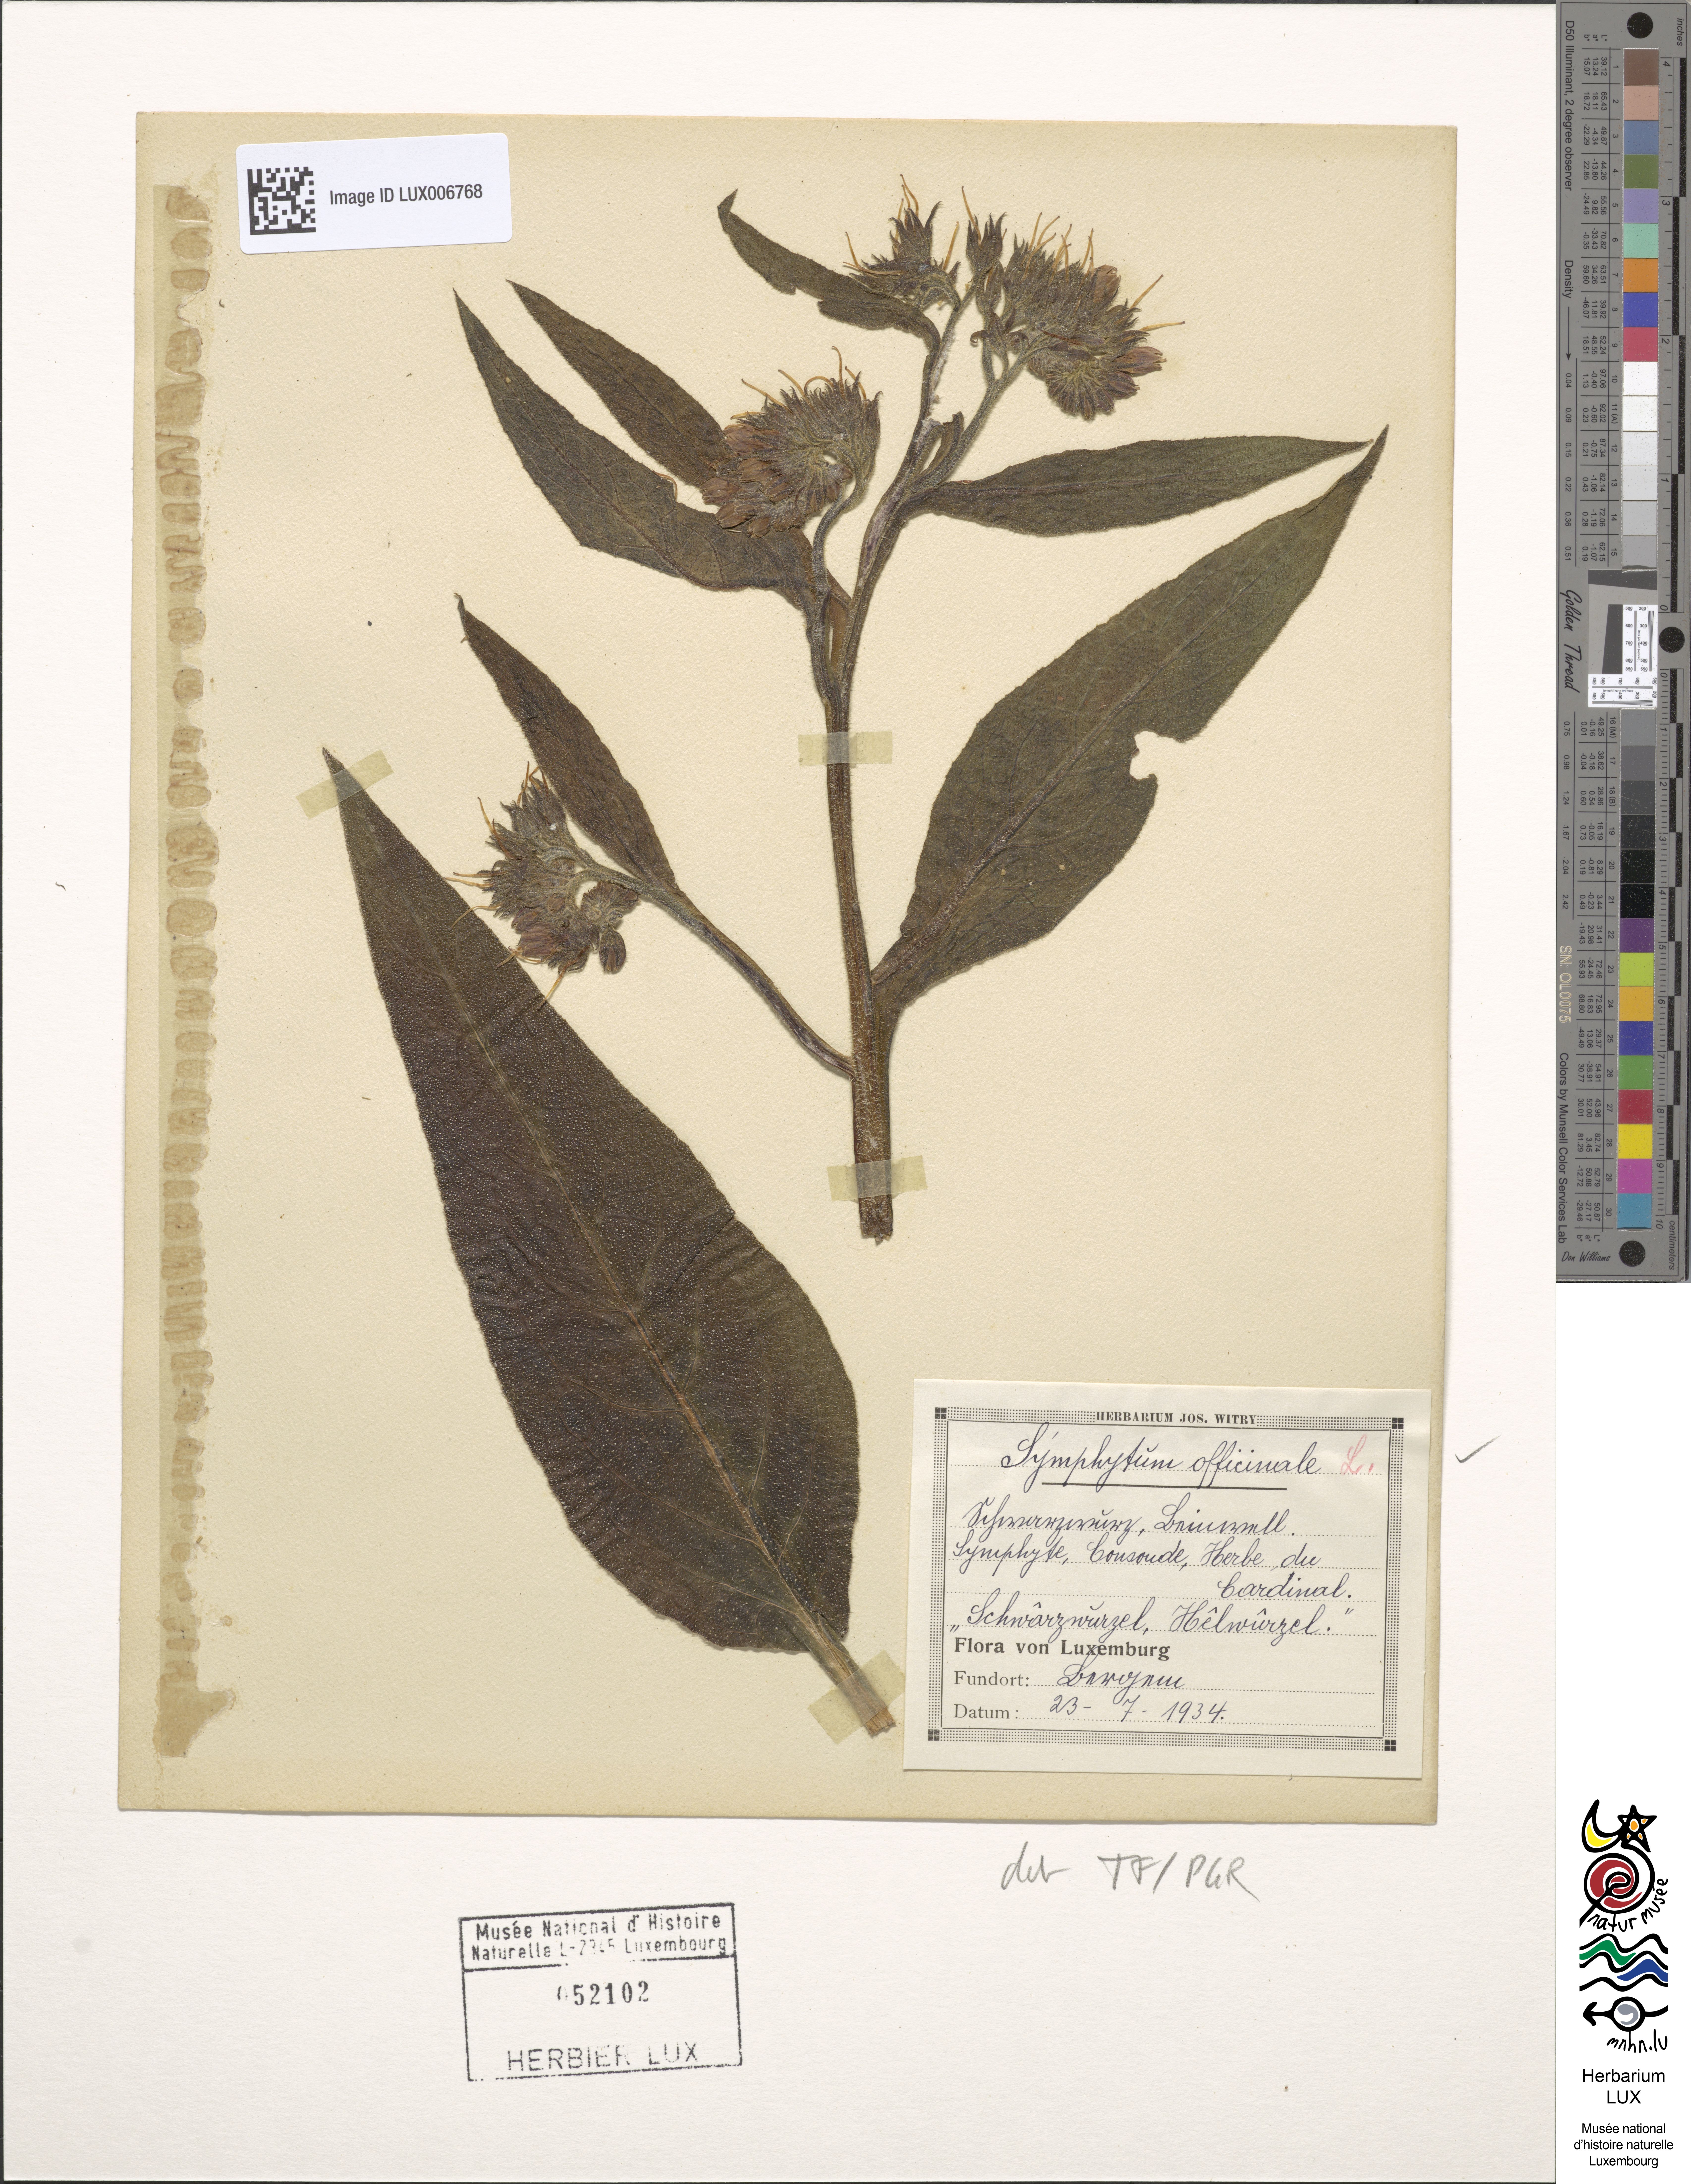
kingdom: Plantae
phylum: Tracheophyta
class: Magnoliopsida
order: Boraginales
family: Boraginaceae
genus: Symphytum
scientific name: Symphytum officinale
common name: Common comfrey
